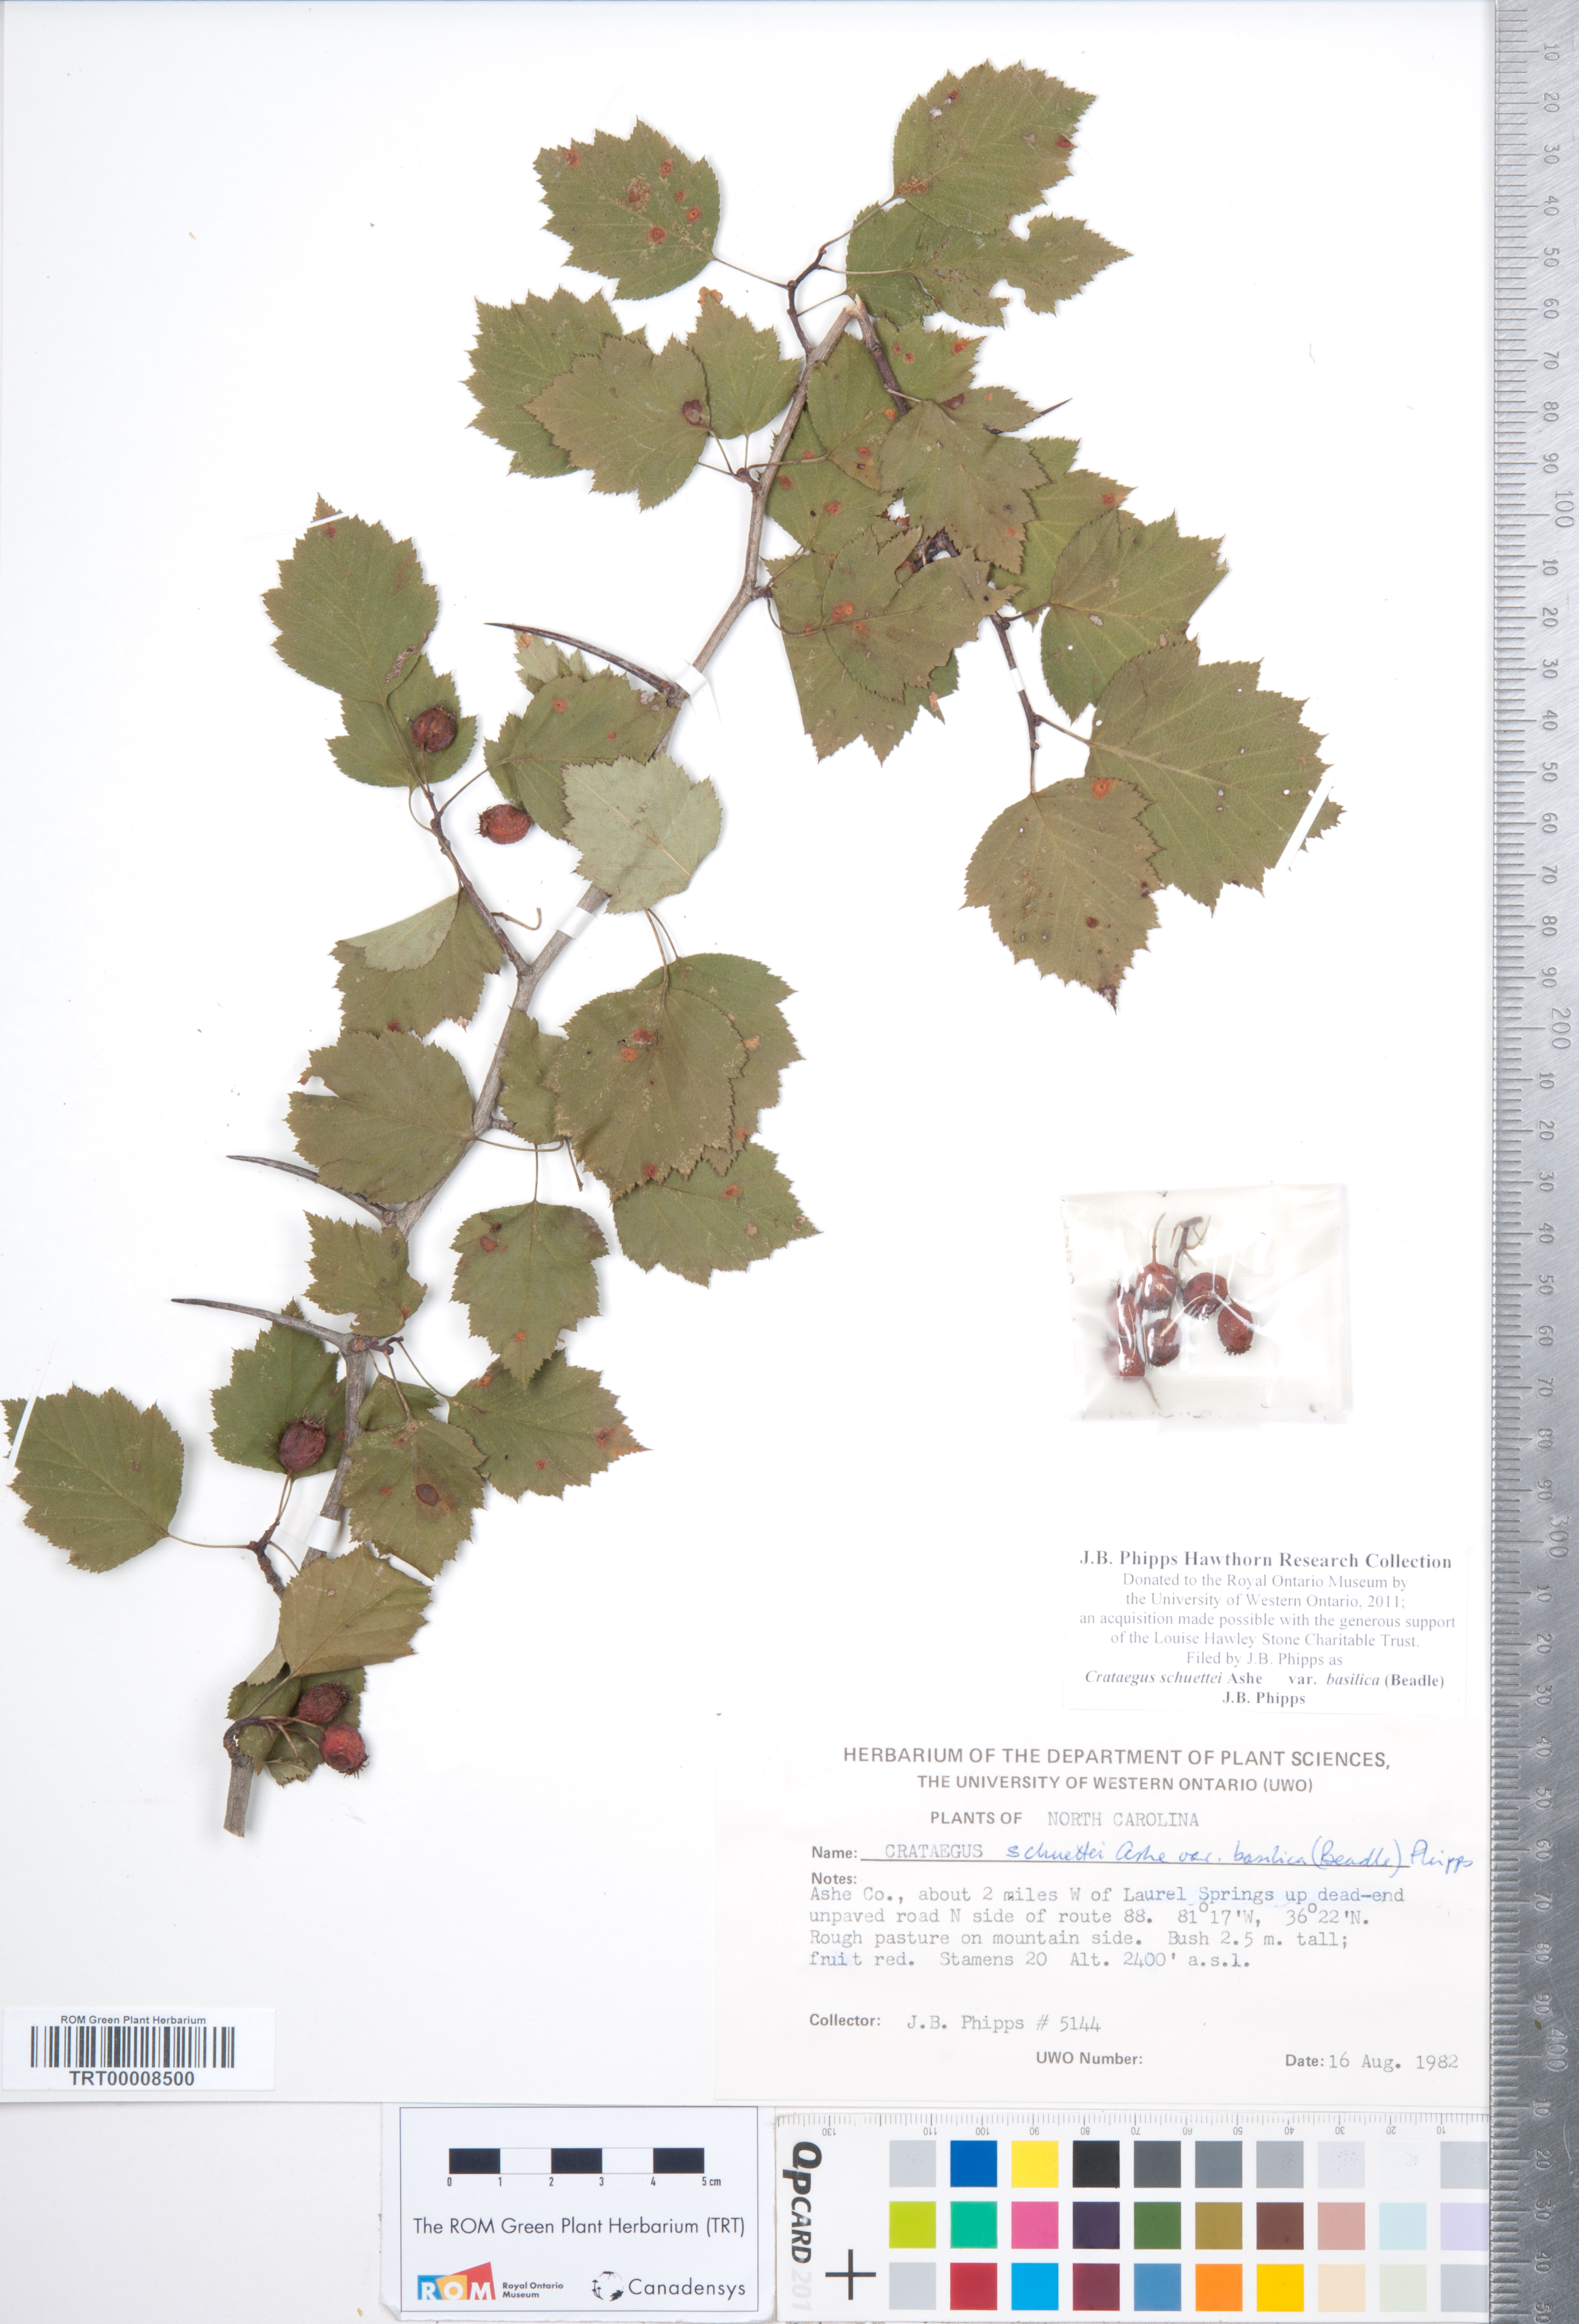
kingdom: Plantae
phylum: Tracheophyta
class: Magnoliopsida
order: Rosales
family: Rosaceae
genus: Crataegus
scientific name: Crataegus schuettei
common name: Schuette's hawthorn
